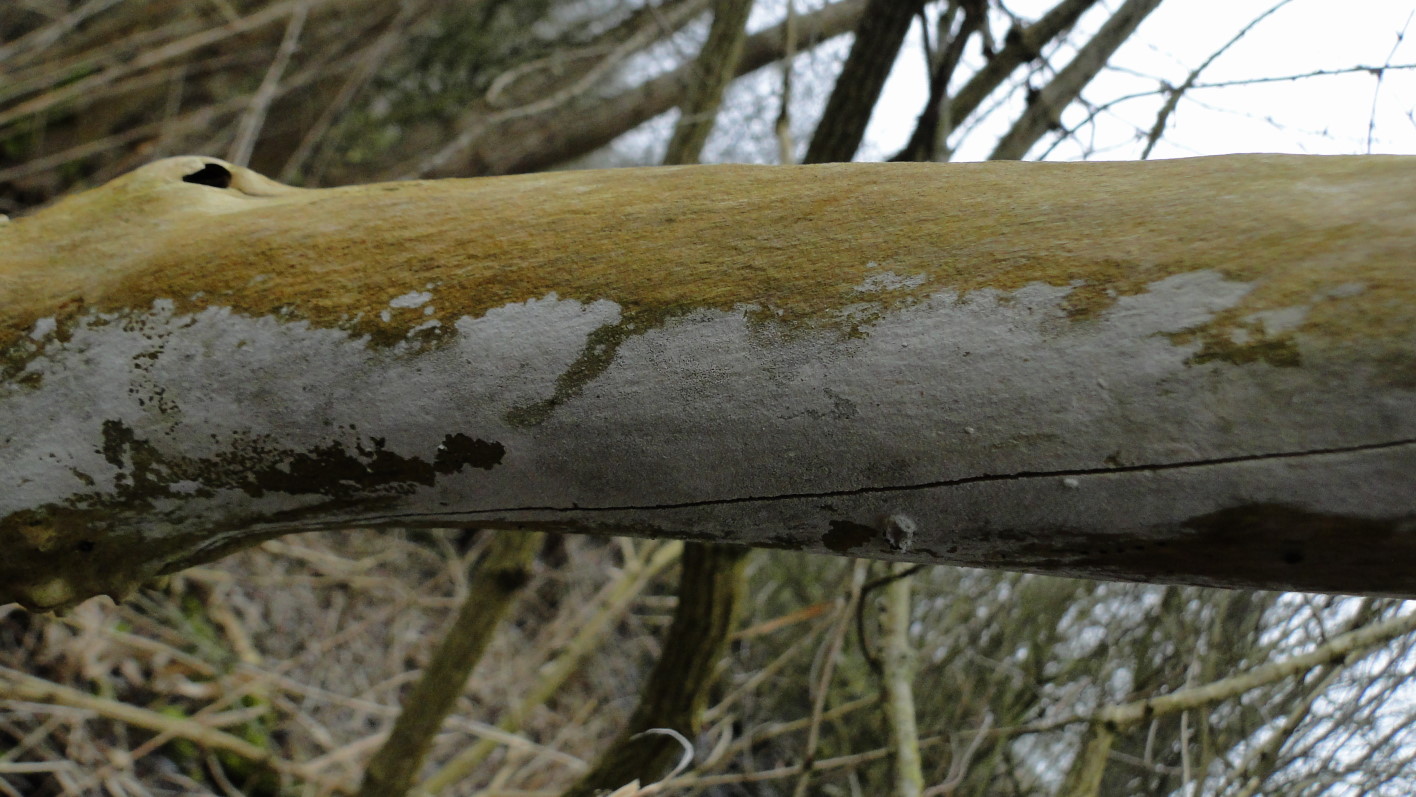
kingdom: Fungi
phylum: Basidiomycota
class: Agaricomycetes
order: Corticiales
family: Corticiaceae
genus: Lyomyces
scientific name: Lyomyces sambuci
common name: almindelig hyldehinde
